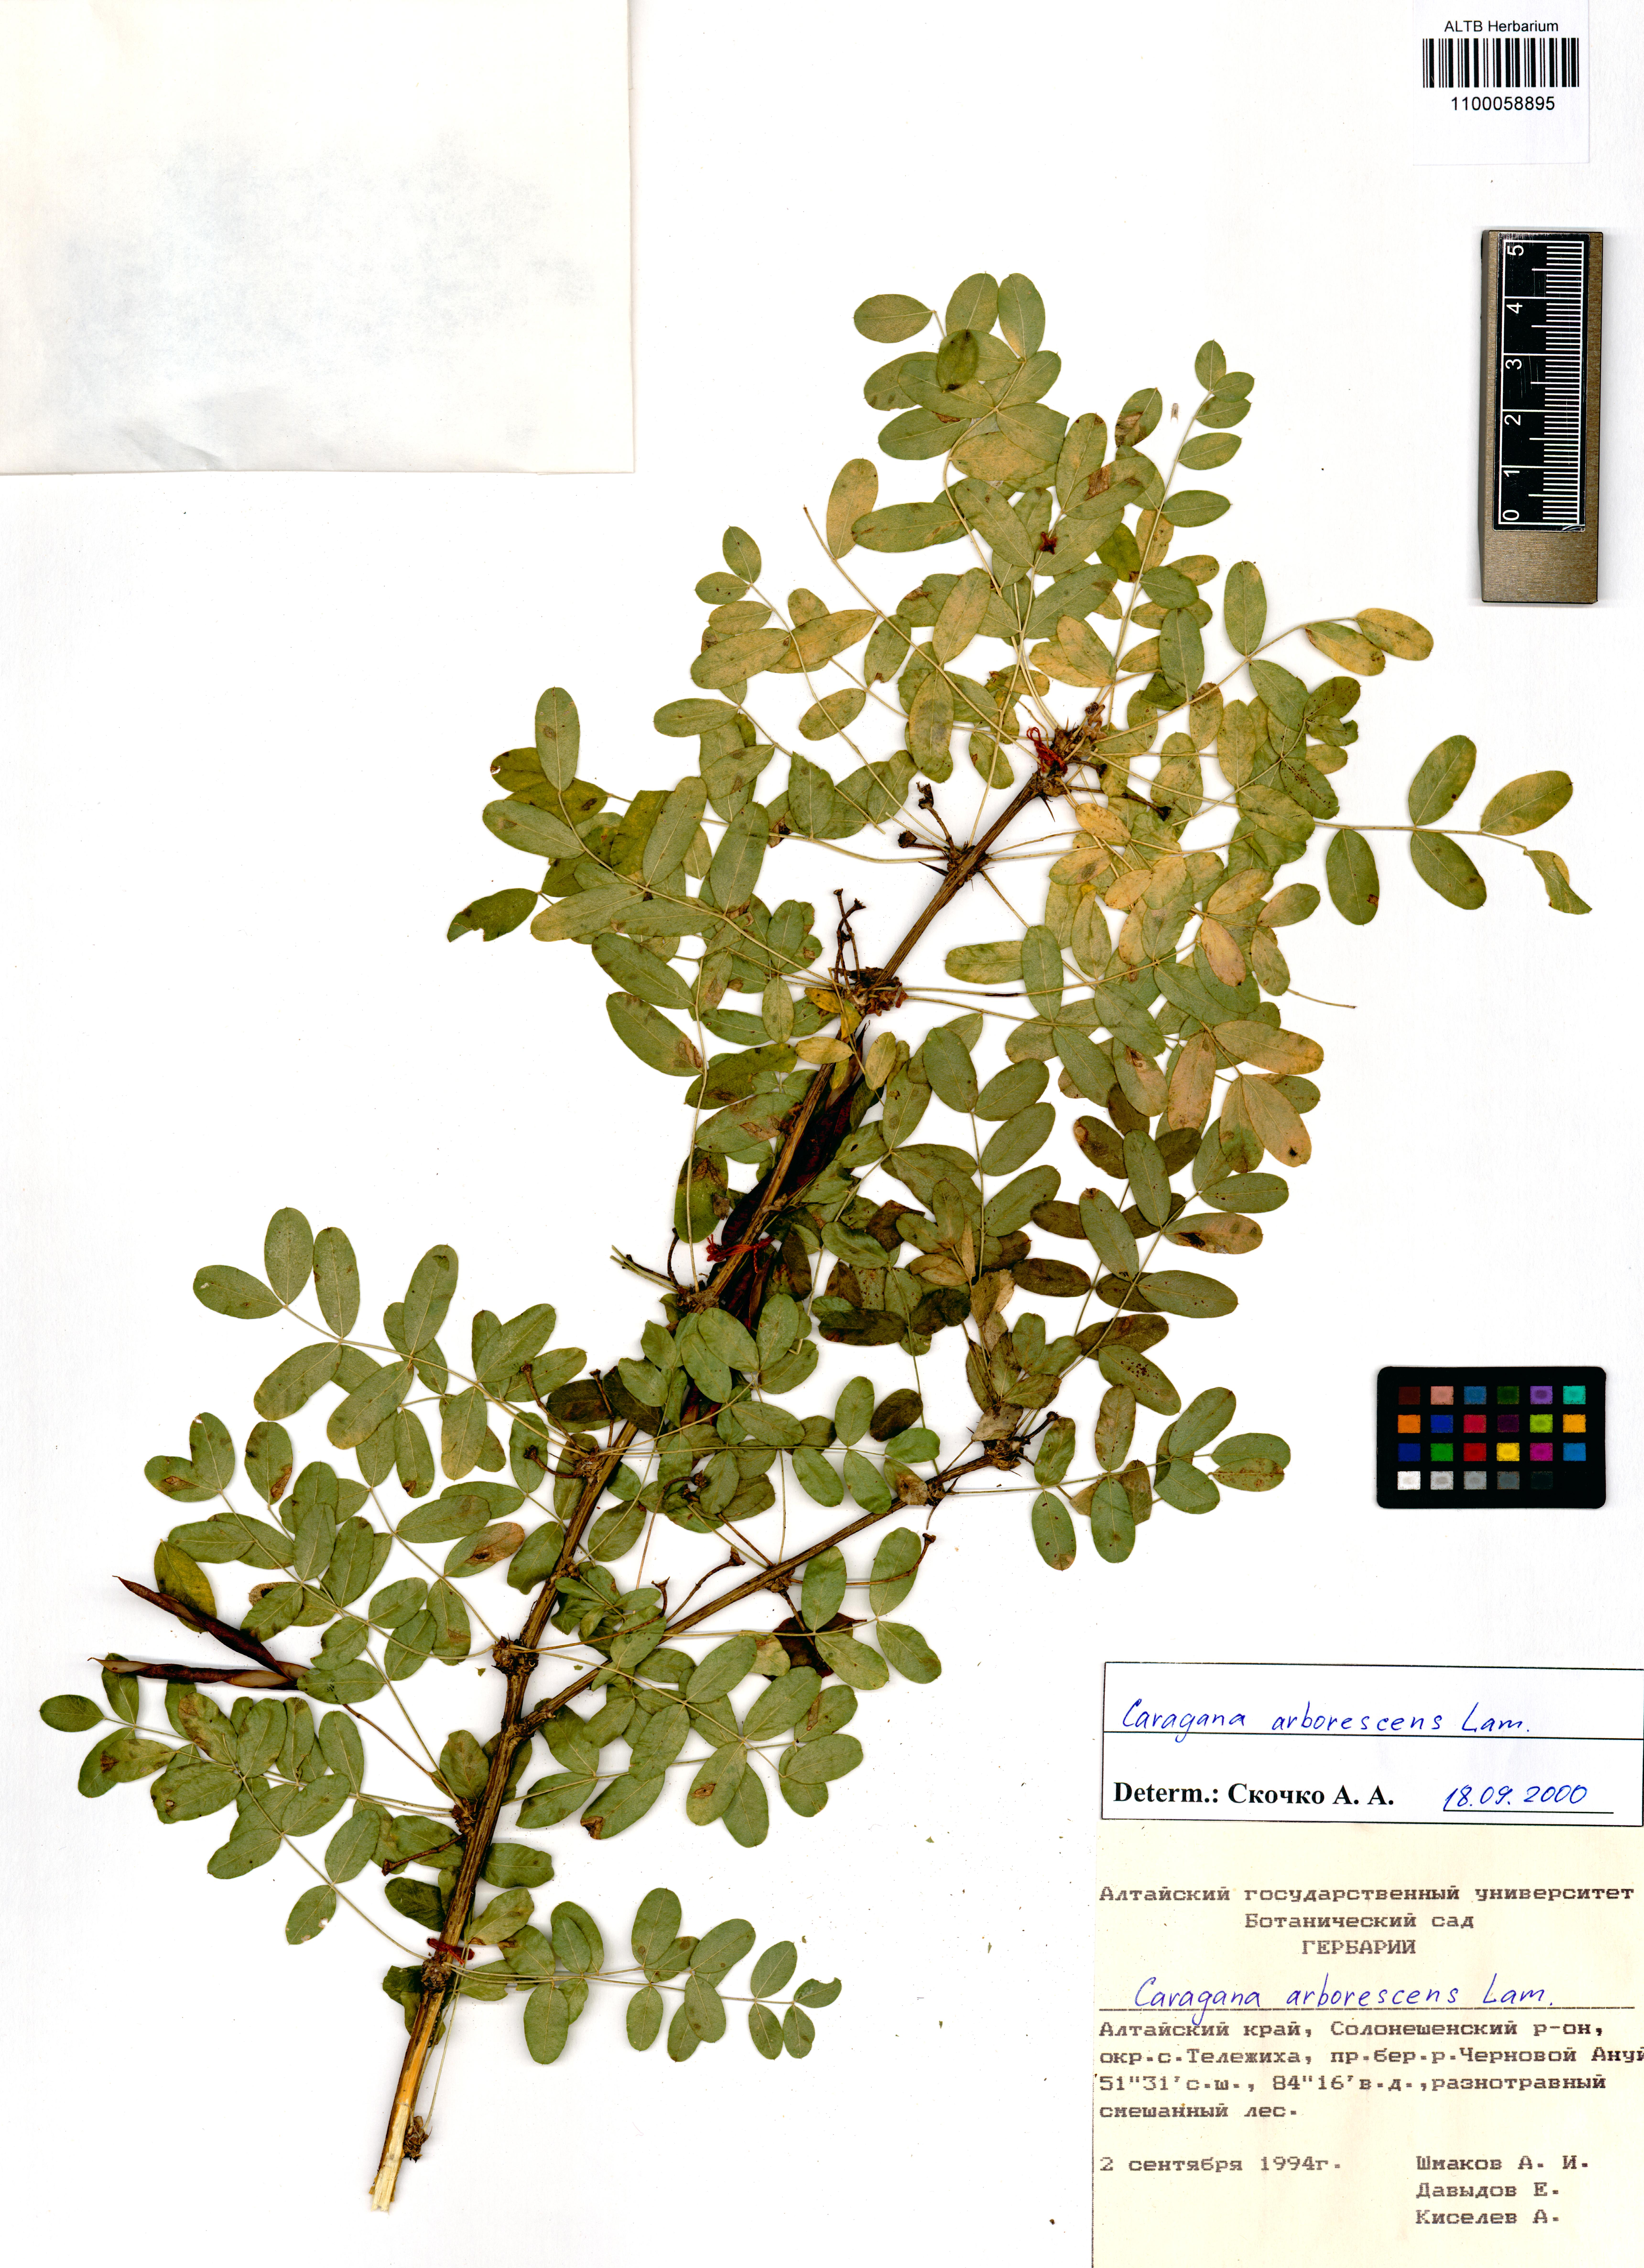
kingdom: Plantae
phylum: Tracheophyta
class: Magnoliopsida
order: Fabales
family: Fabaceae
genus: Caragana
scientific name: Caragana arborescens
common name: Siberian peashrub
